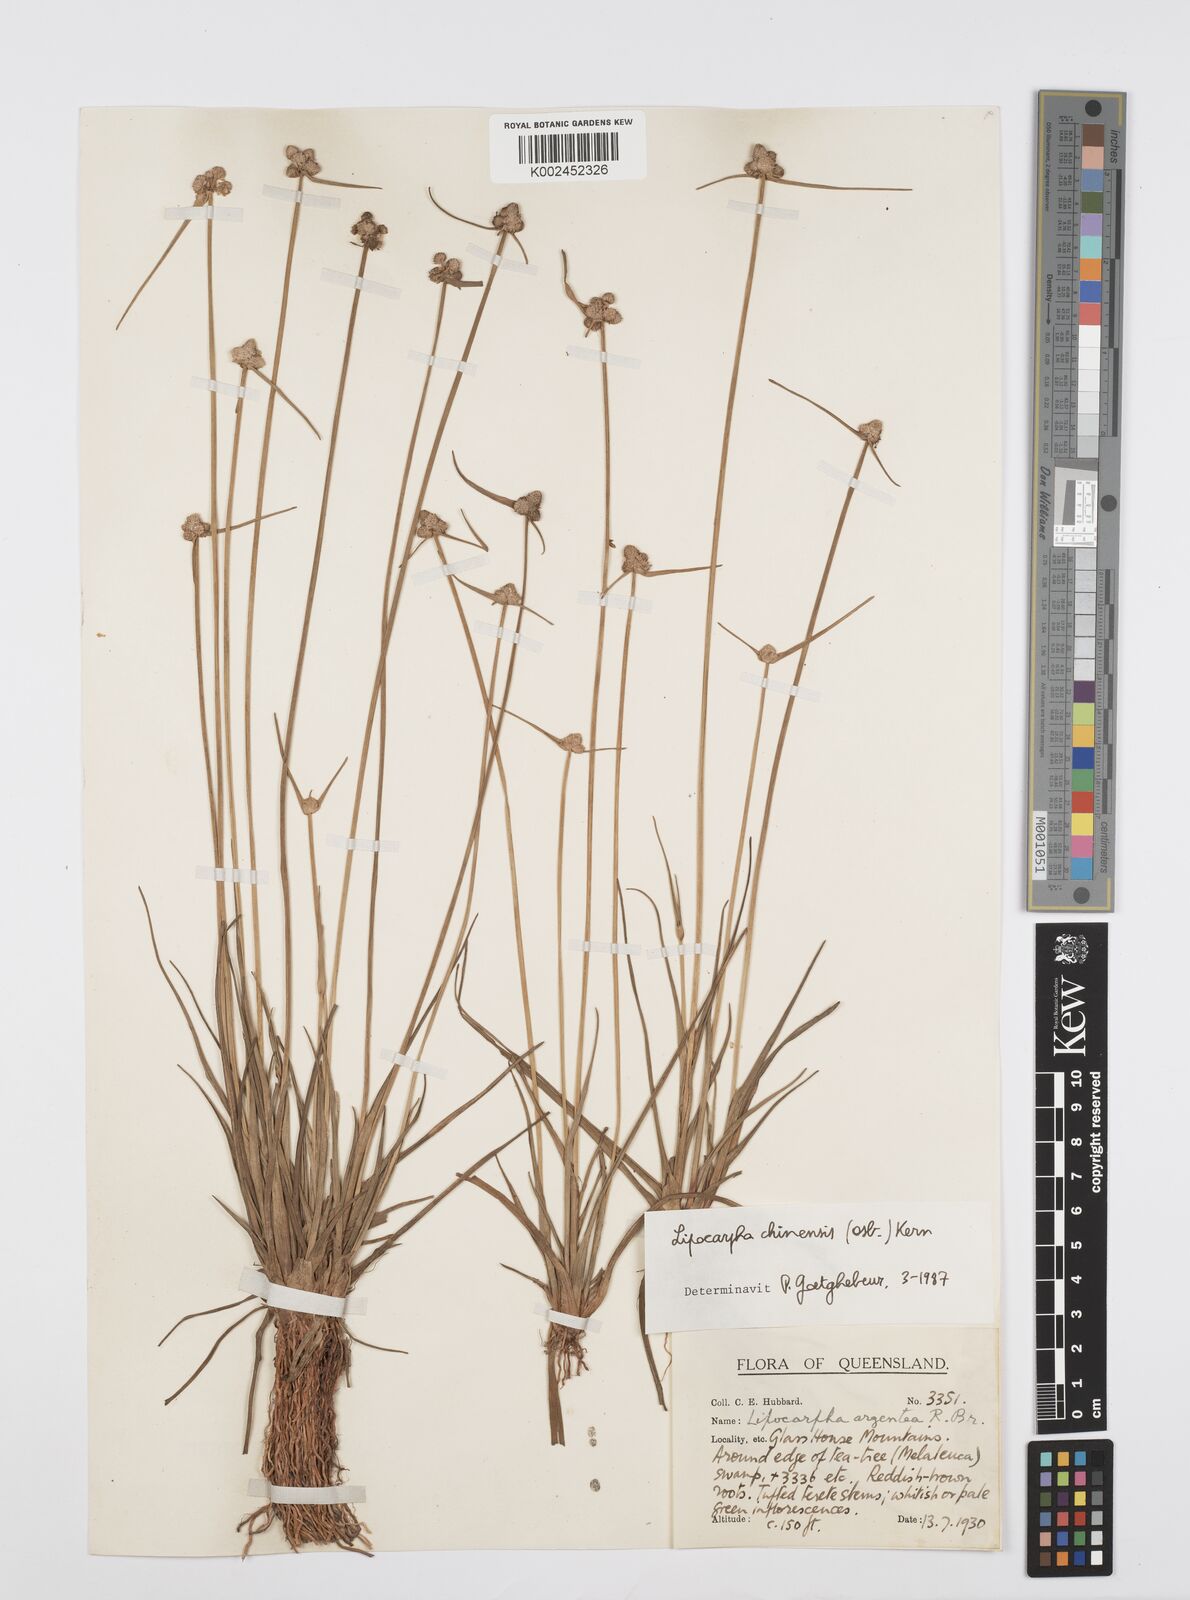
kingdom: Plantae
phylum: Tracheophyta
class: Liliopsida
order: Poales
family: Cyperaceae
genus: Cyperus
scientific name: Cyperus
